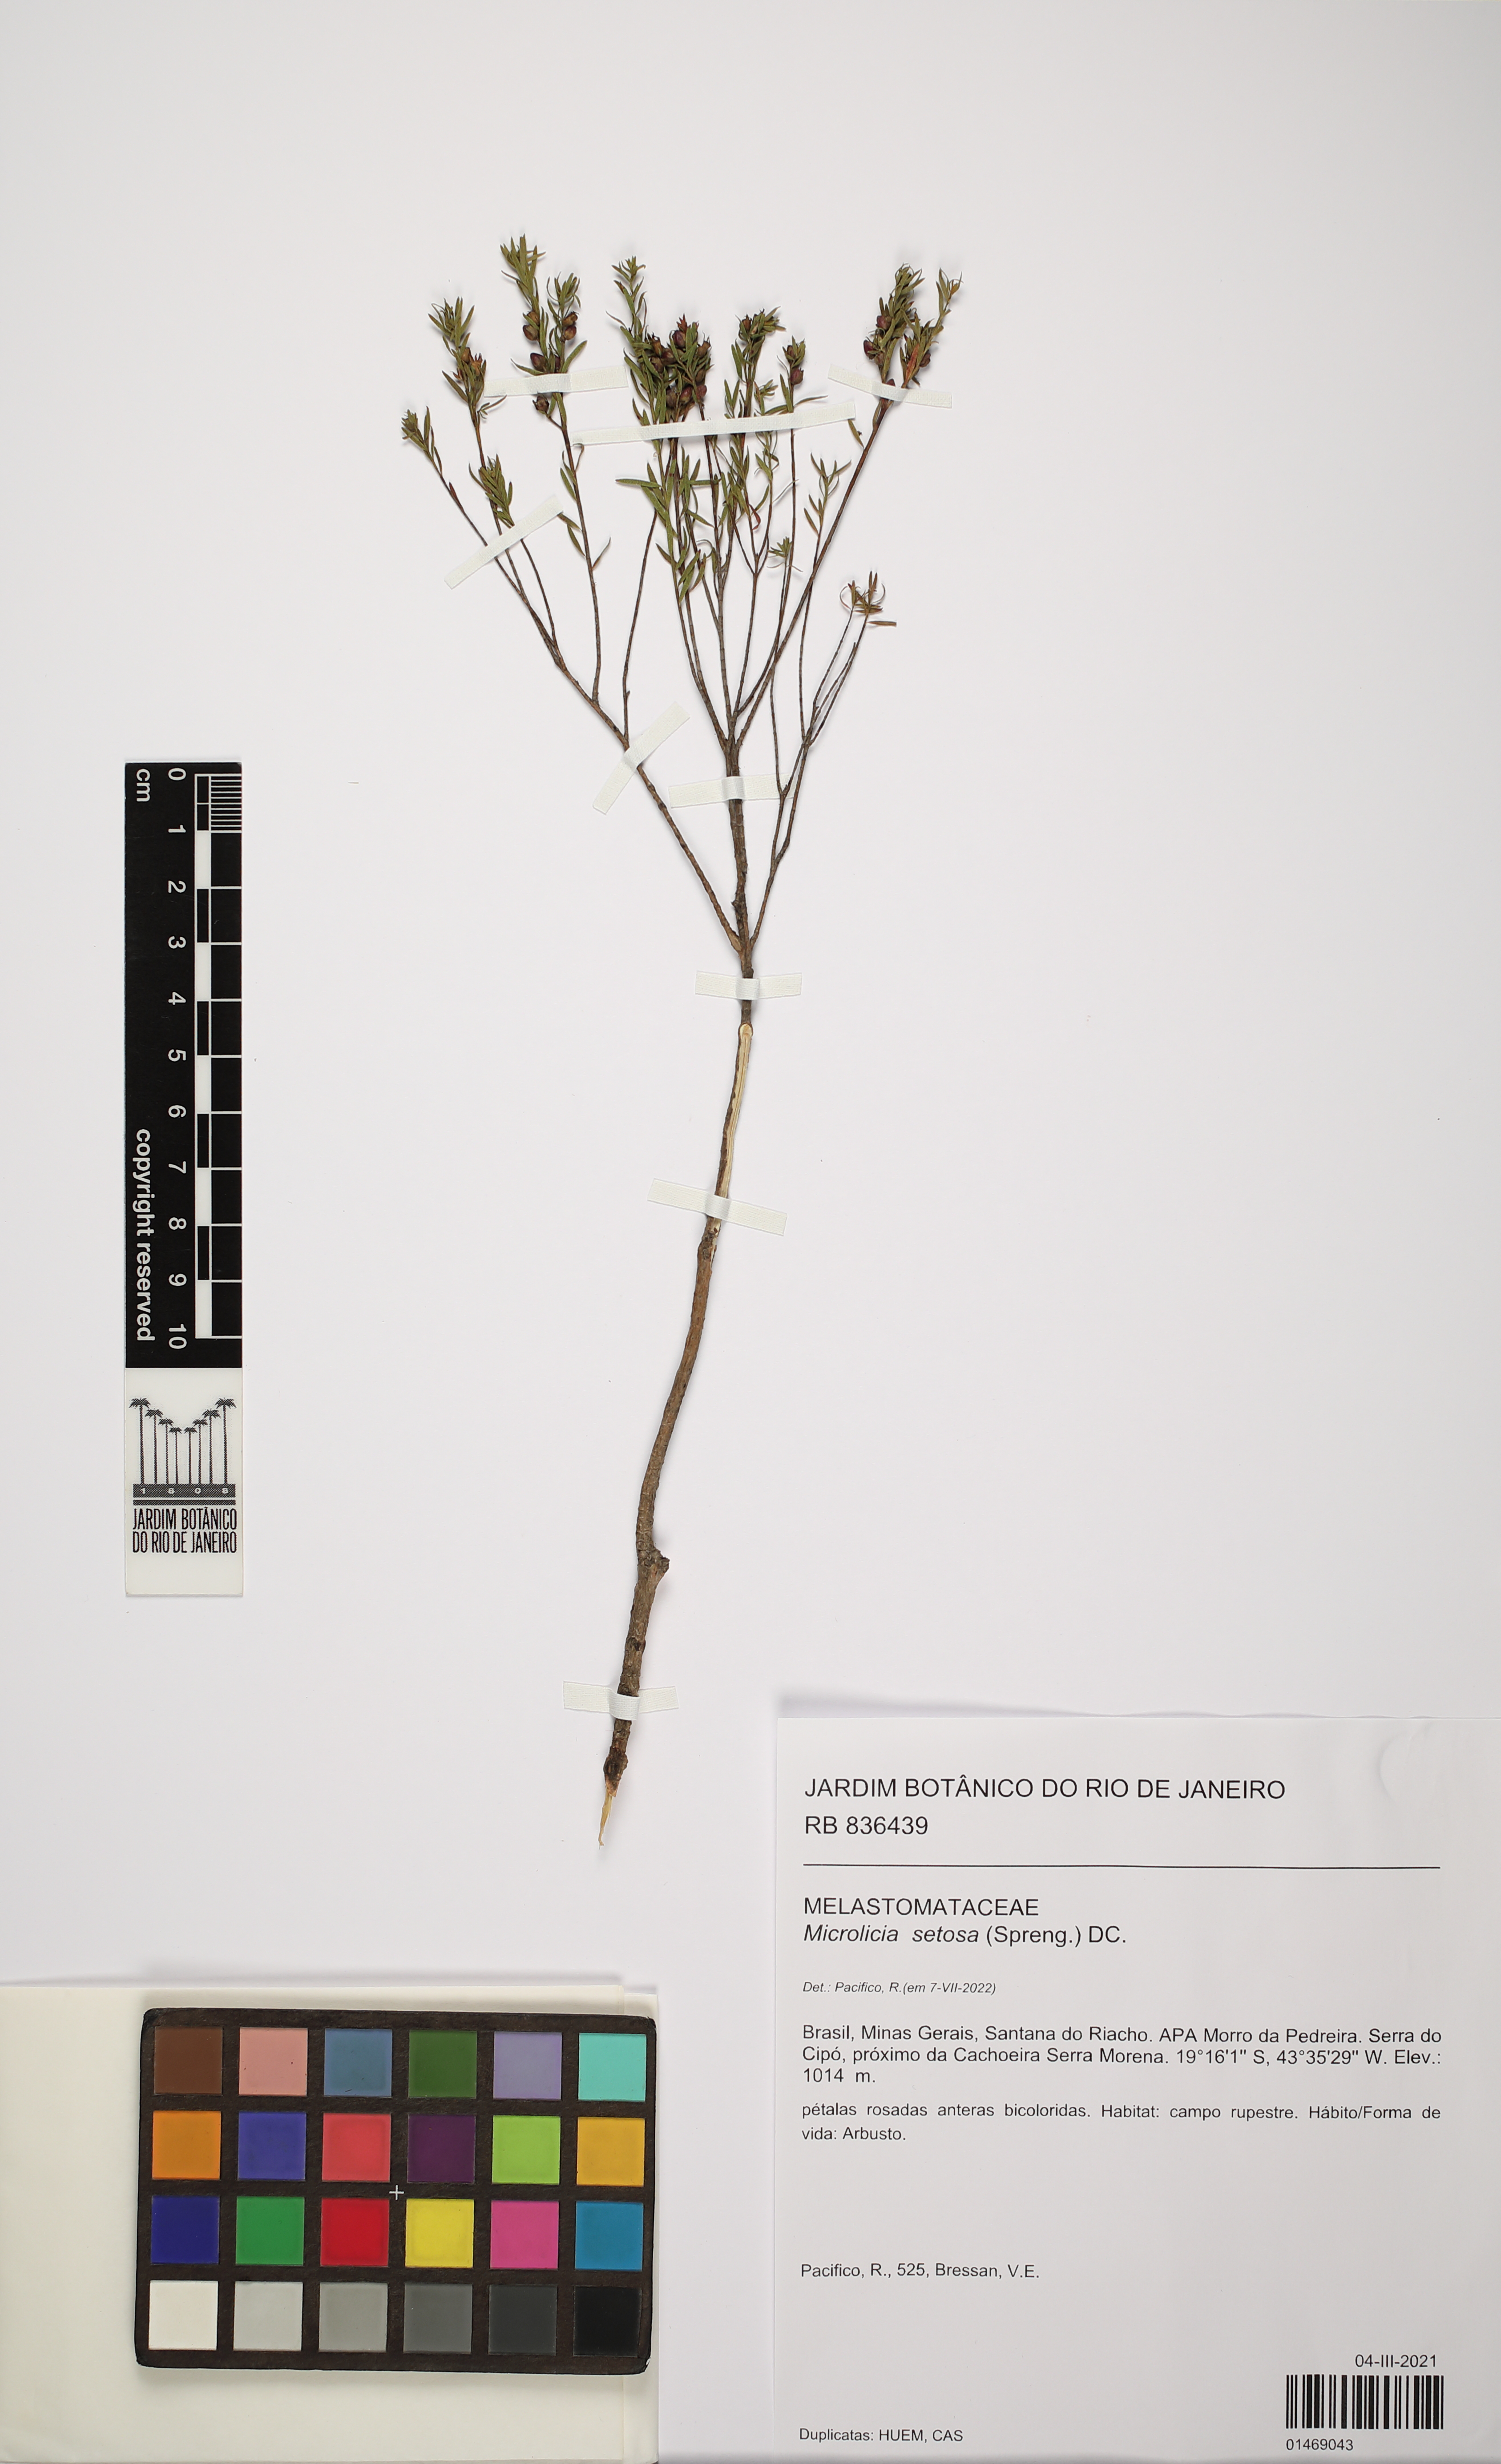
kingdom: Plantae
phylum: Tracheophyta
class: Magnoliopsida
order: Myrtales
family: Melastomataceae
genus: Microlicia
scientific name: Microlicia setosa
